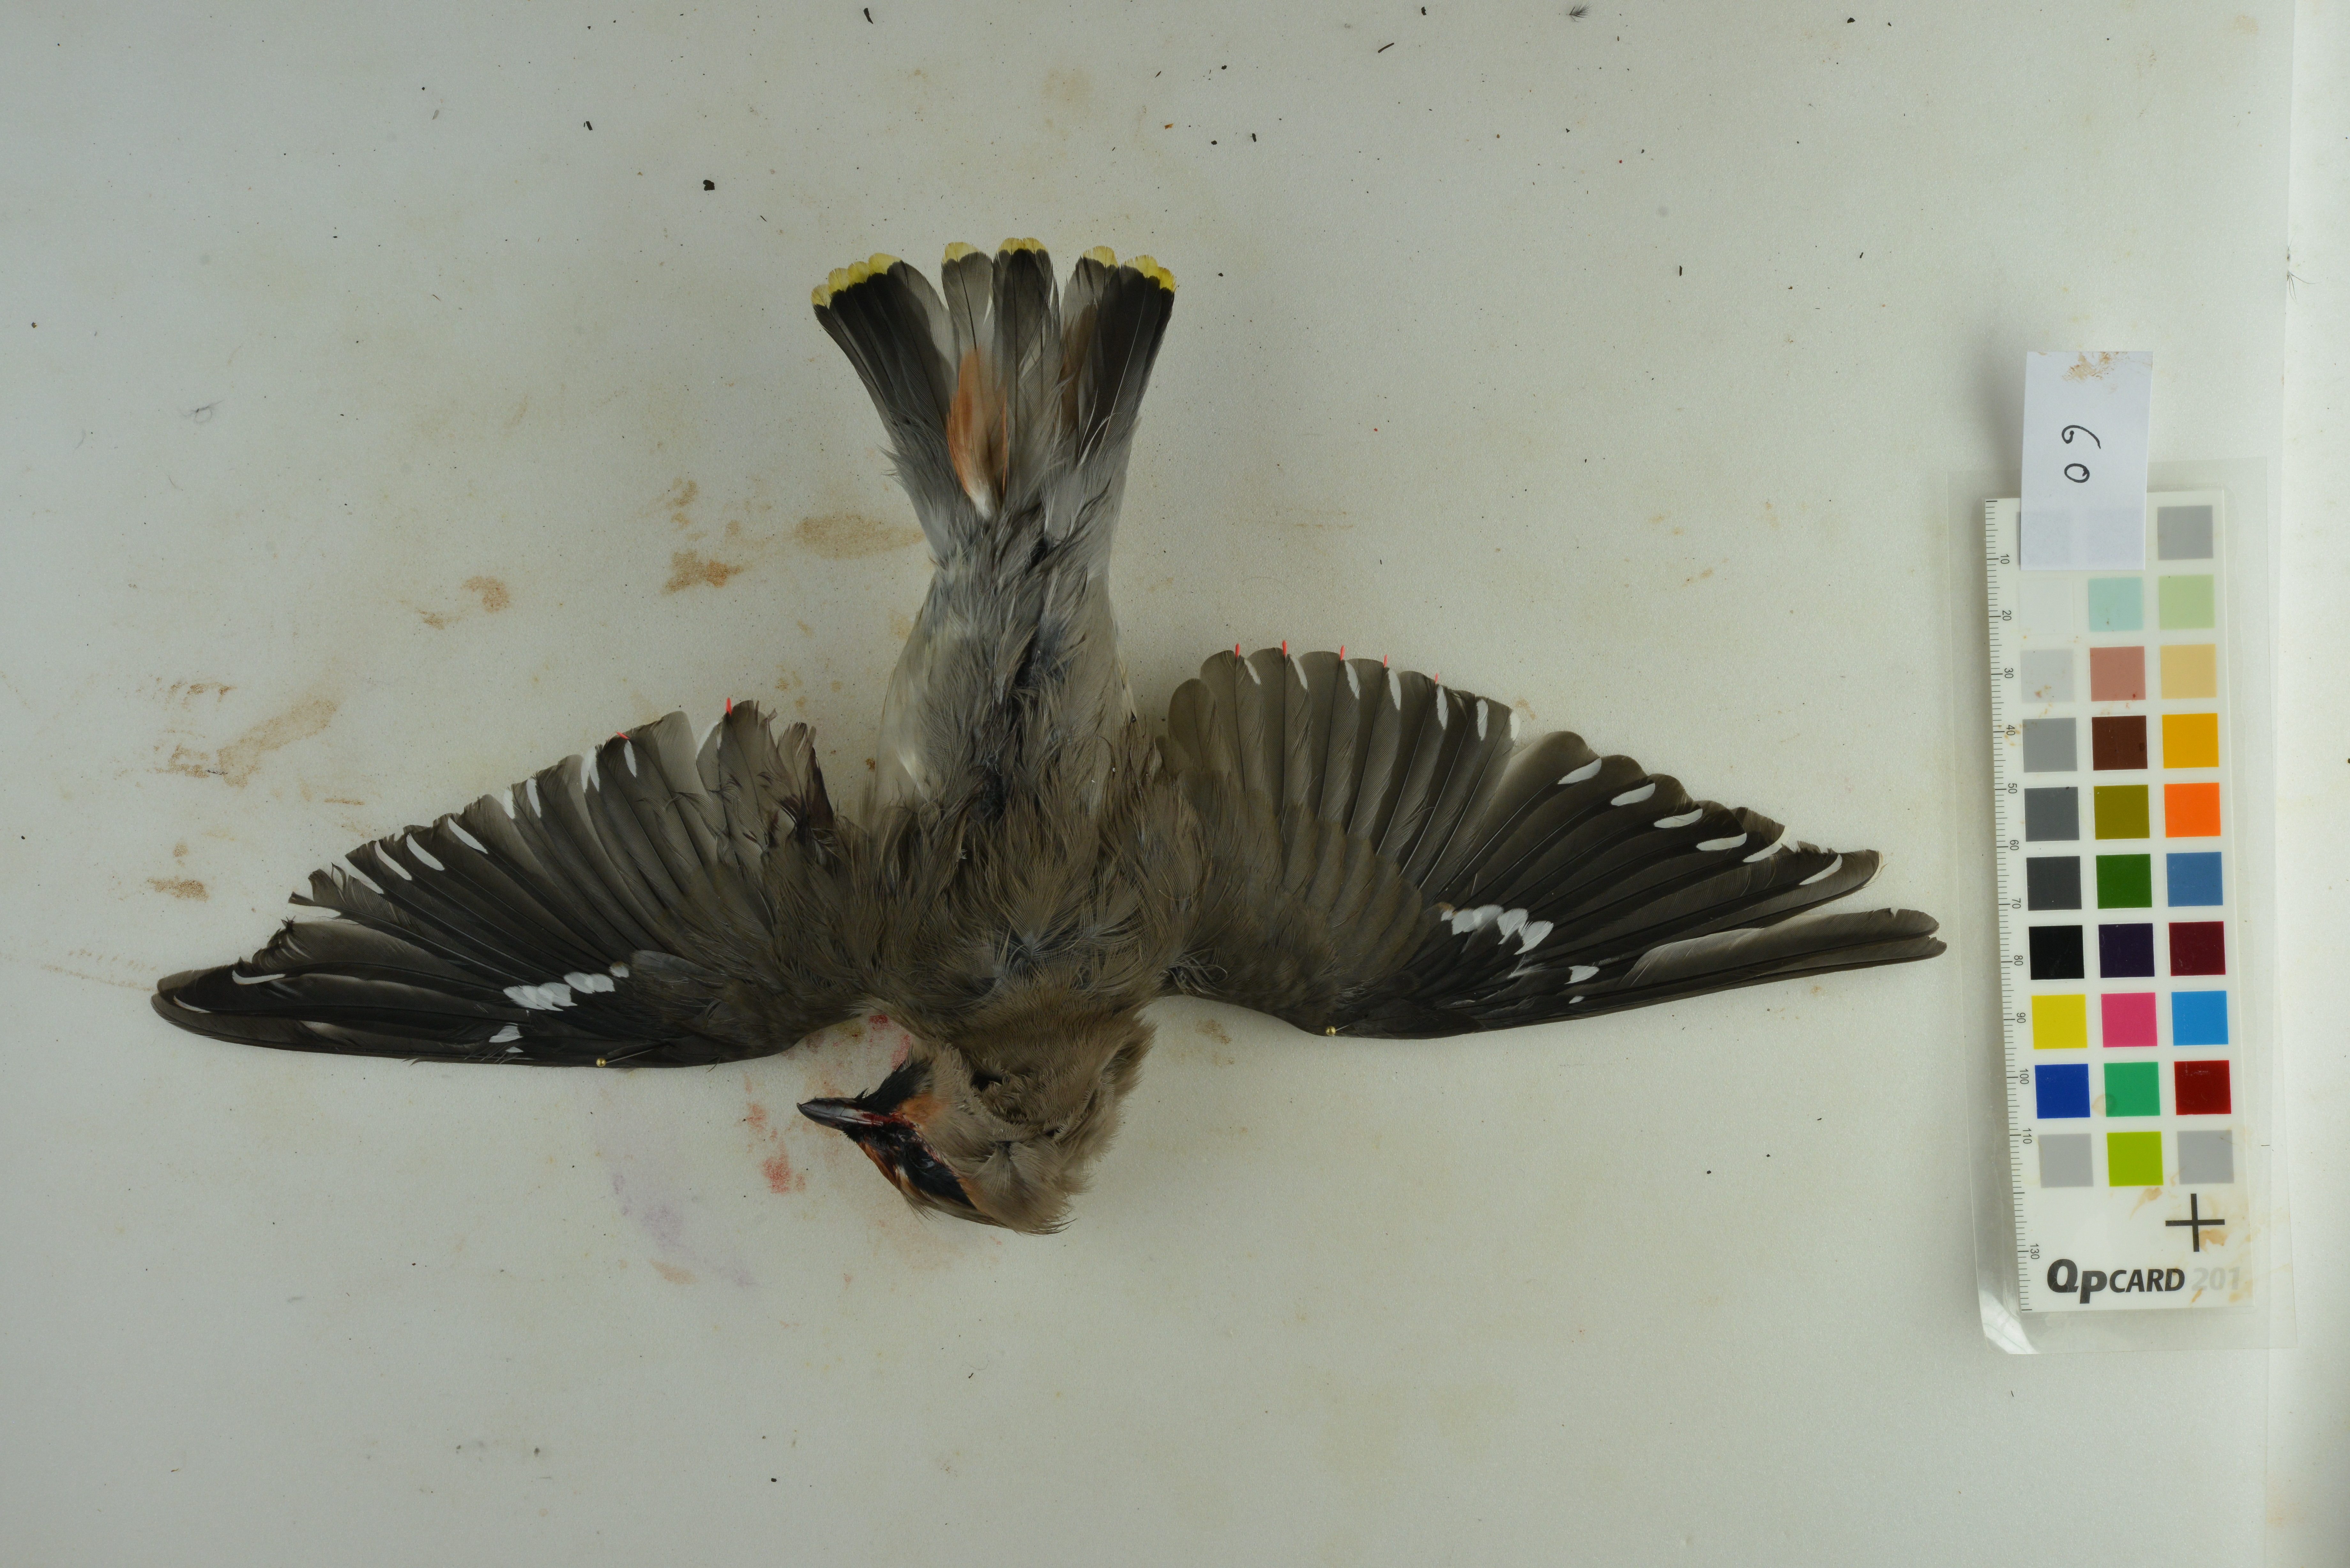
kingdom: Animalia
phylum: Chordata
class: Aves
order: Passeriformes
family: Bombycillidae
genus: Bombycilla
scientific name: Bombycilla garrulus
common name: Bohemian waxwing
